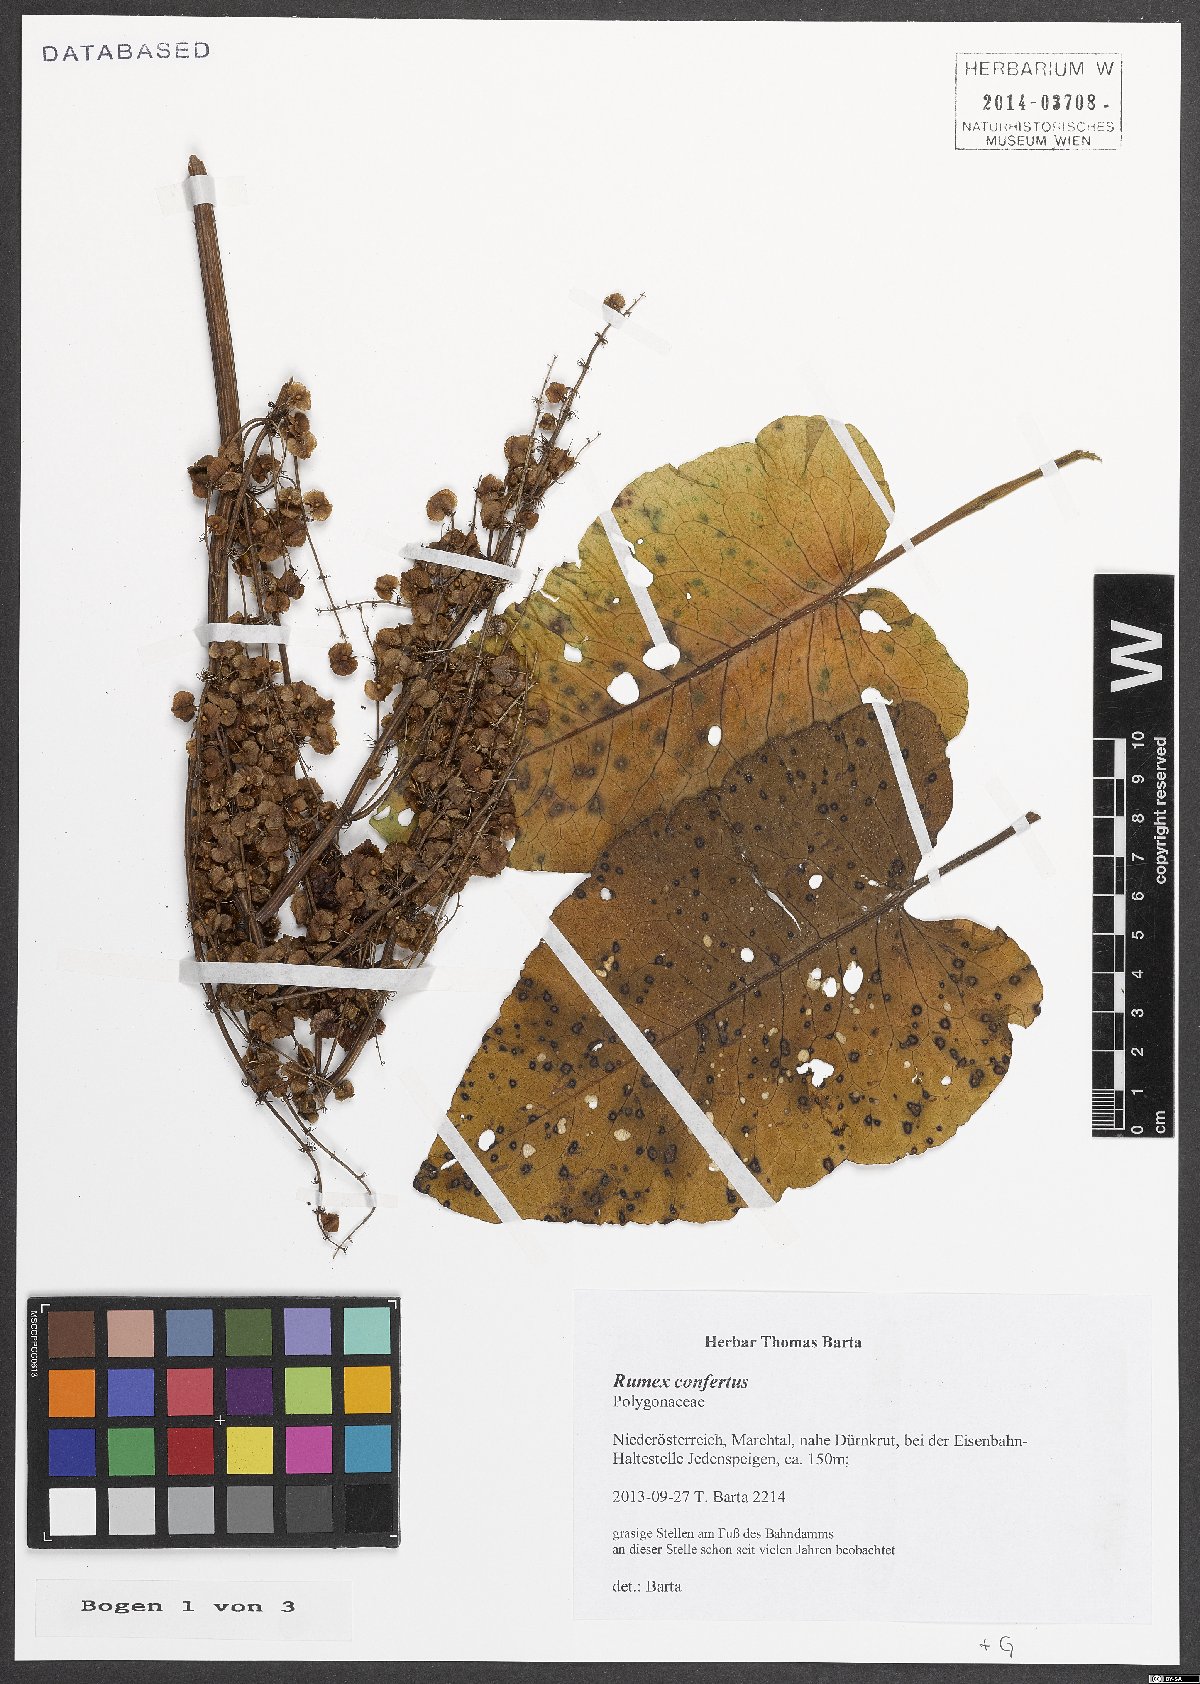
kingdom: Plantae
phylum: Tracheophyta
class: Magnoliopsida
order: Caryophyllales
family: Polygonaceae
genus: Rumex
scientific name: Rumex confertus
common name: Russian dock
